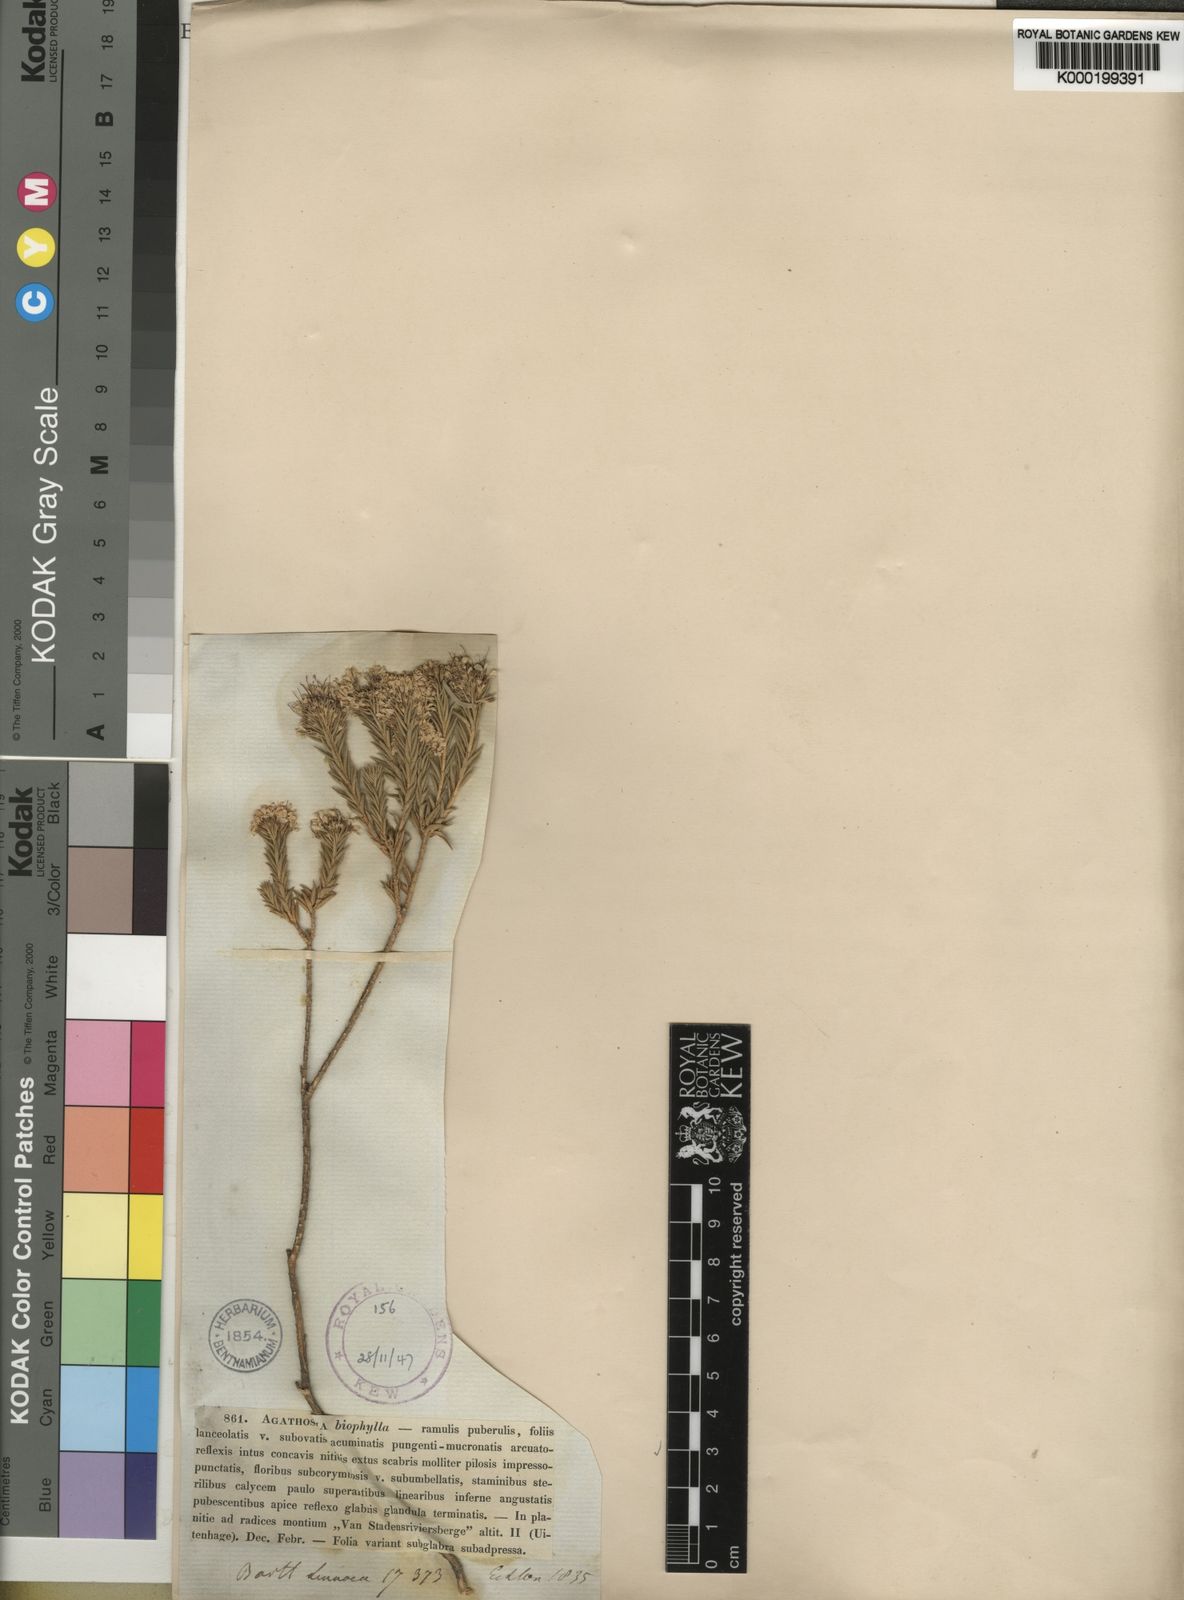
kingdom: Plantae
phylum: Tracheophyta
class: Magnoliopsida
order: Sapindales
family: Rutaceae
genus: Agathosma
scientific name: Agathosma adenocaulis
